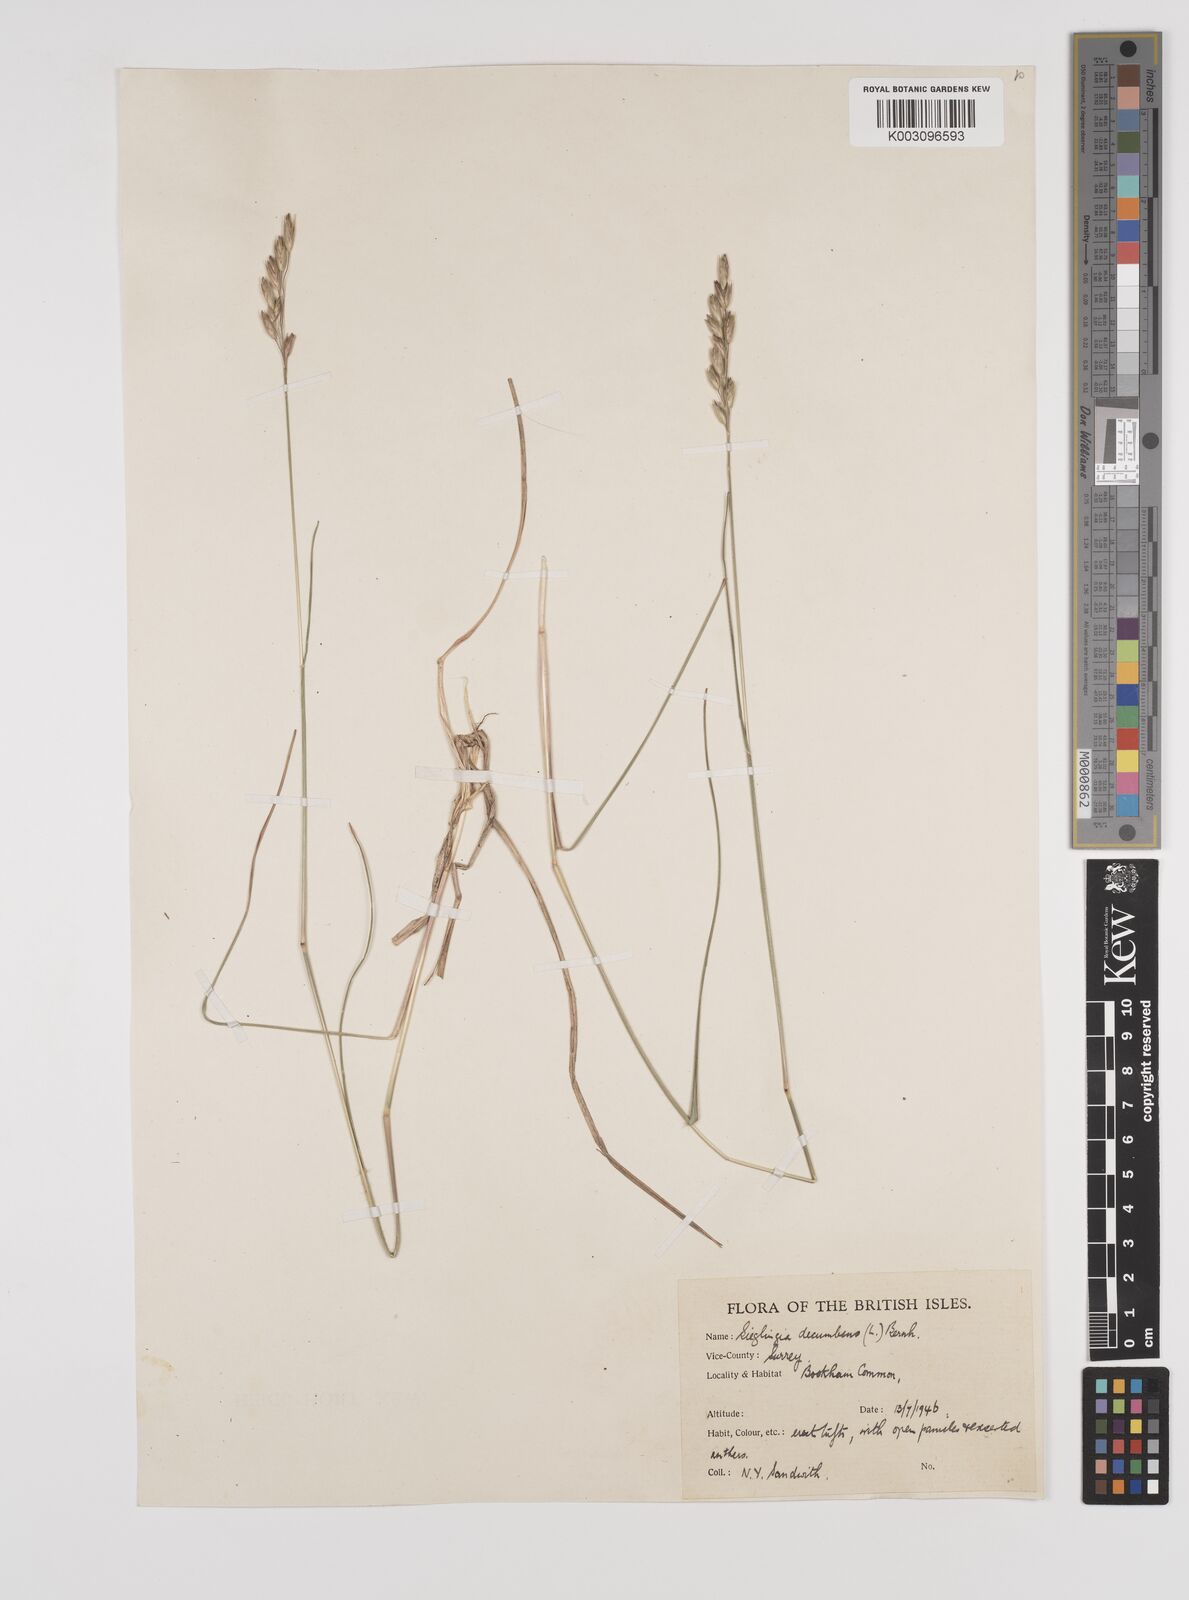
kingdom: Plantae
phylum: Tracheophyta
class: Liliopsida
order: Poales
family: Poaceae
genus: Danthonia
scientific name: Danthonia decumbens
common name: Common heathgrass
